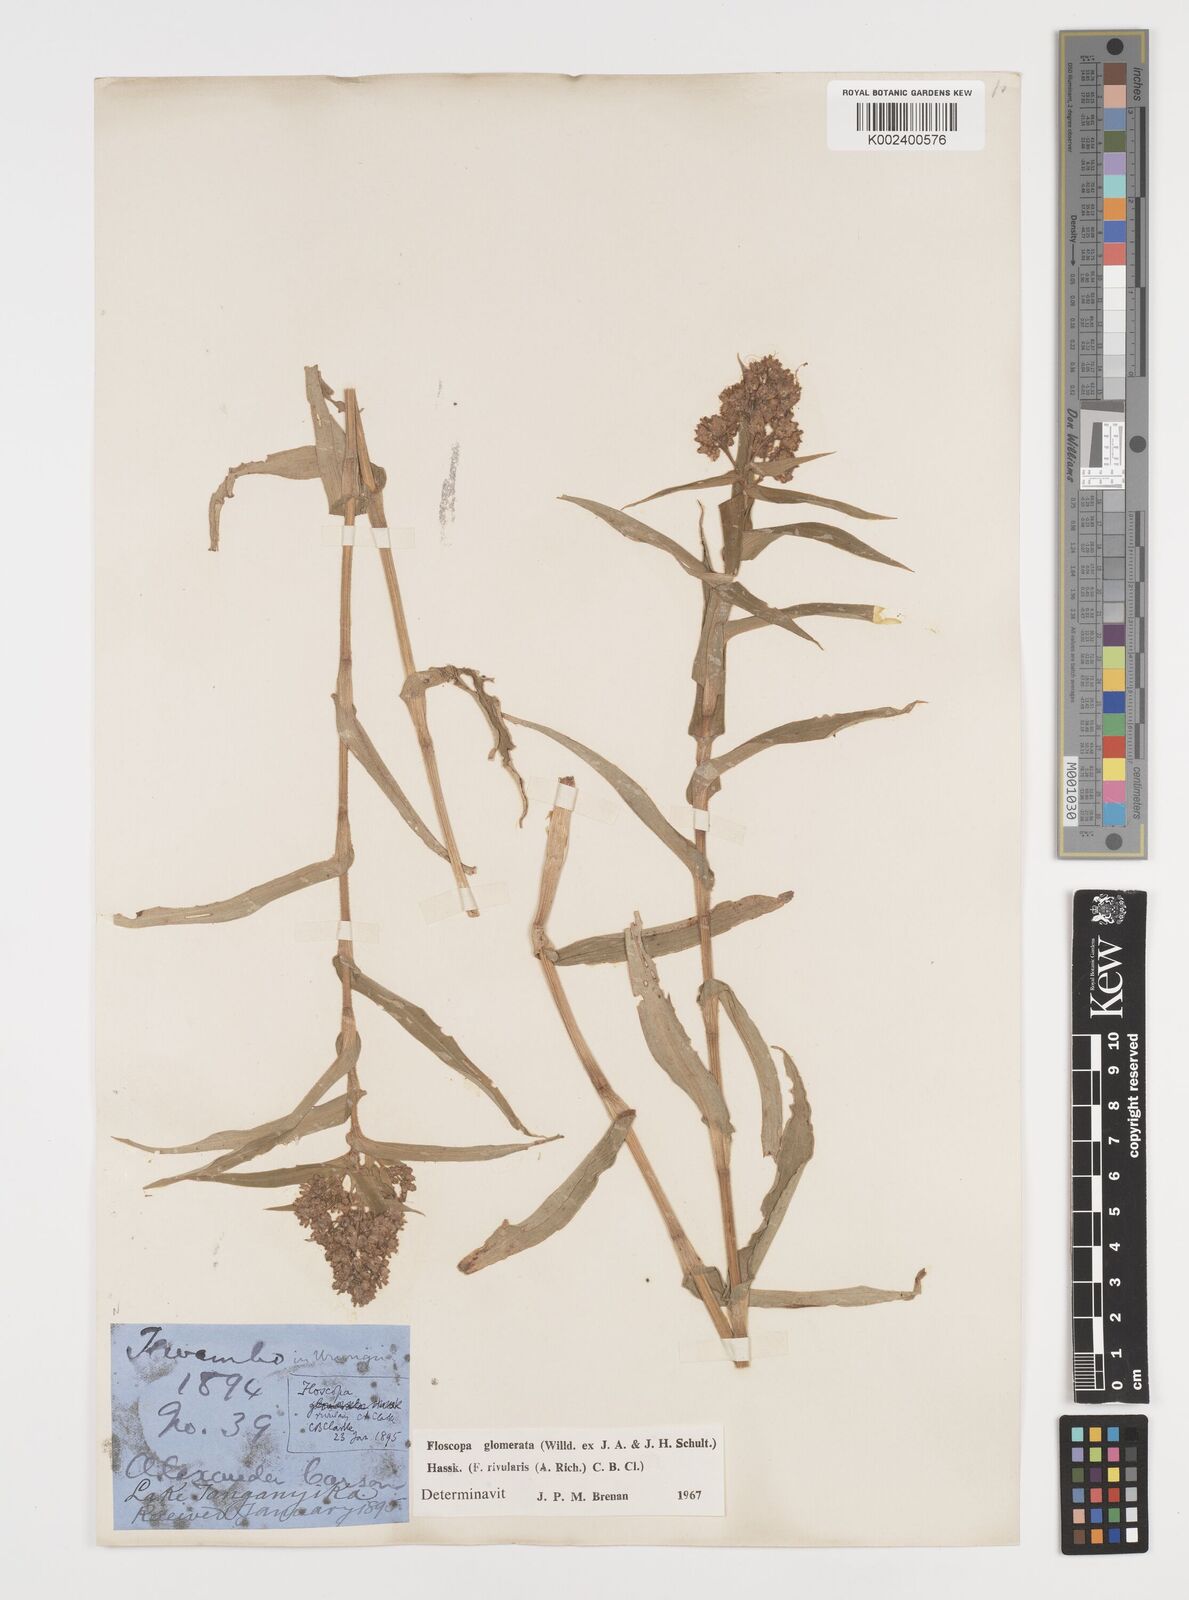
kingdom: Plantae
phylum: Tracheophyta
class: Liliopsida
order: Commelinales
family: Commelinaceae
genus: Floscopa
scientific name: Floscopa glomerata
